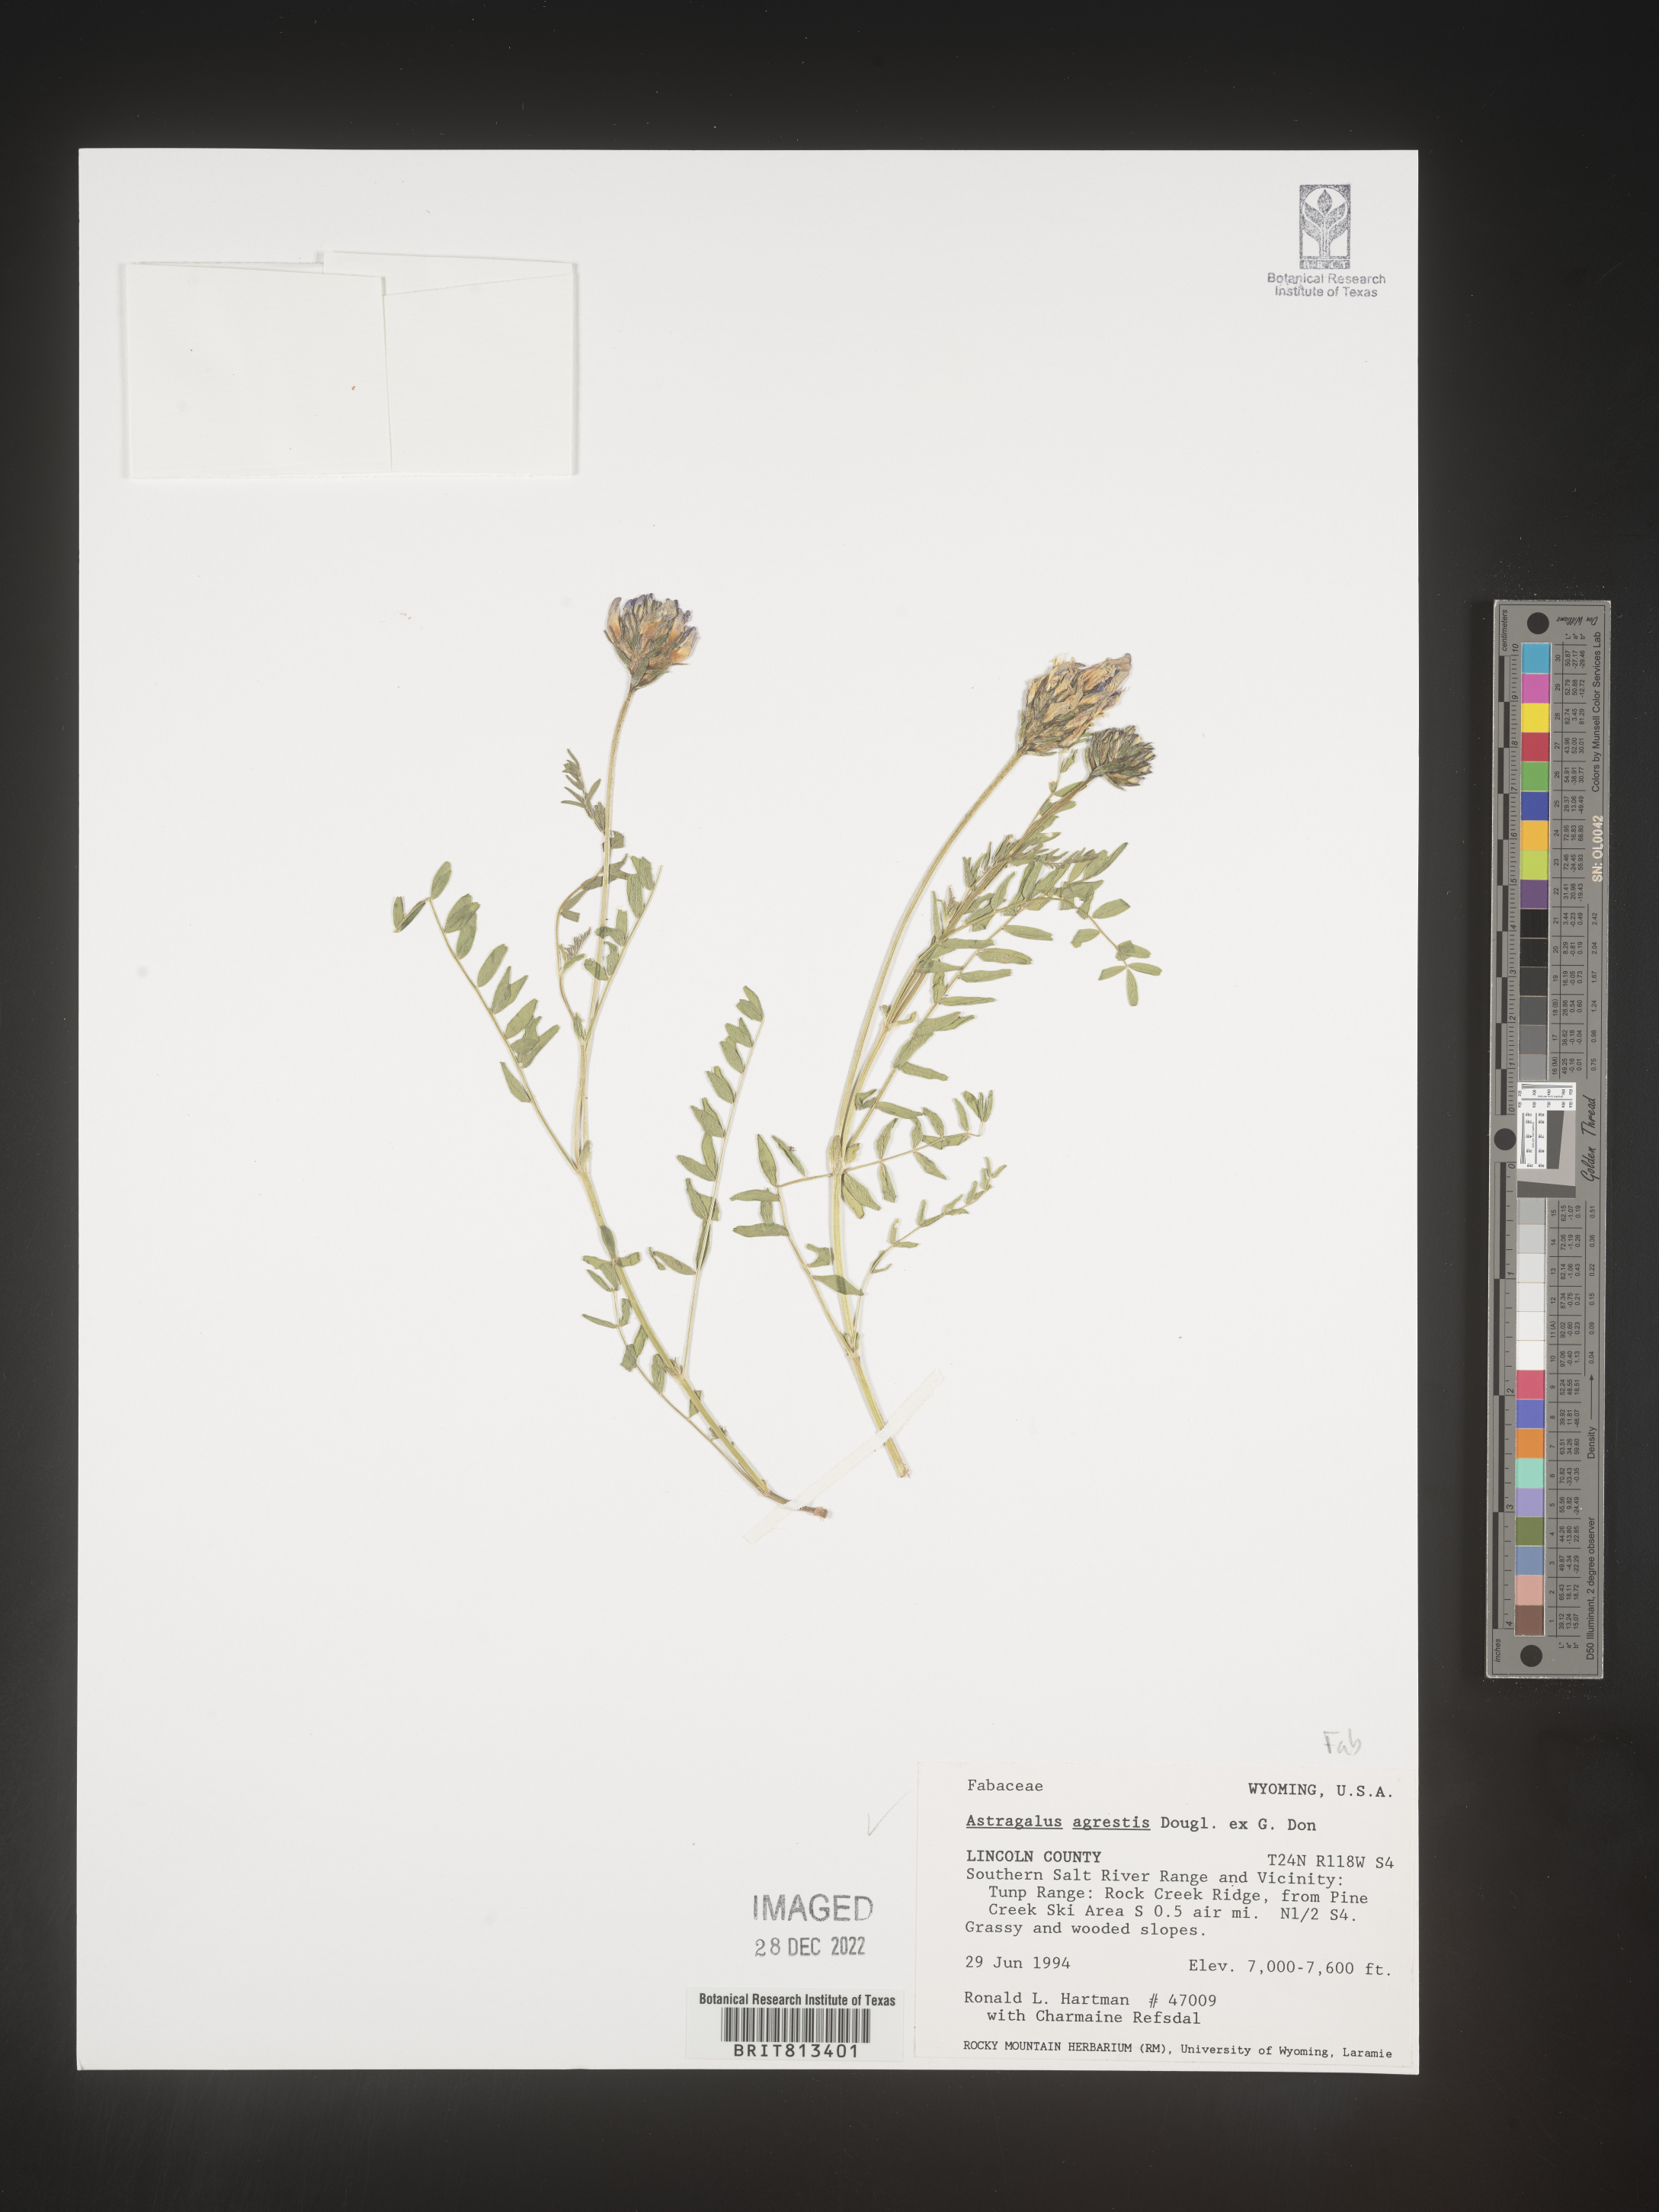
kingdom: Plantae
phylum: Tracheophyta
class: Magnoliopsida
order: Fabales
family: Fabaceae
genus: Astragalus
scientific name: Astragalus agrestis
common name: Field milk-vetch
